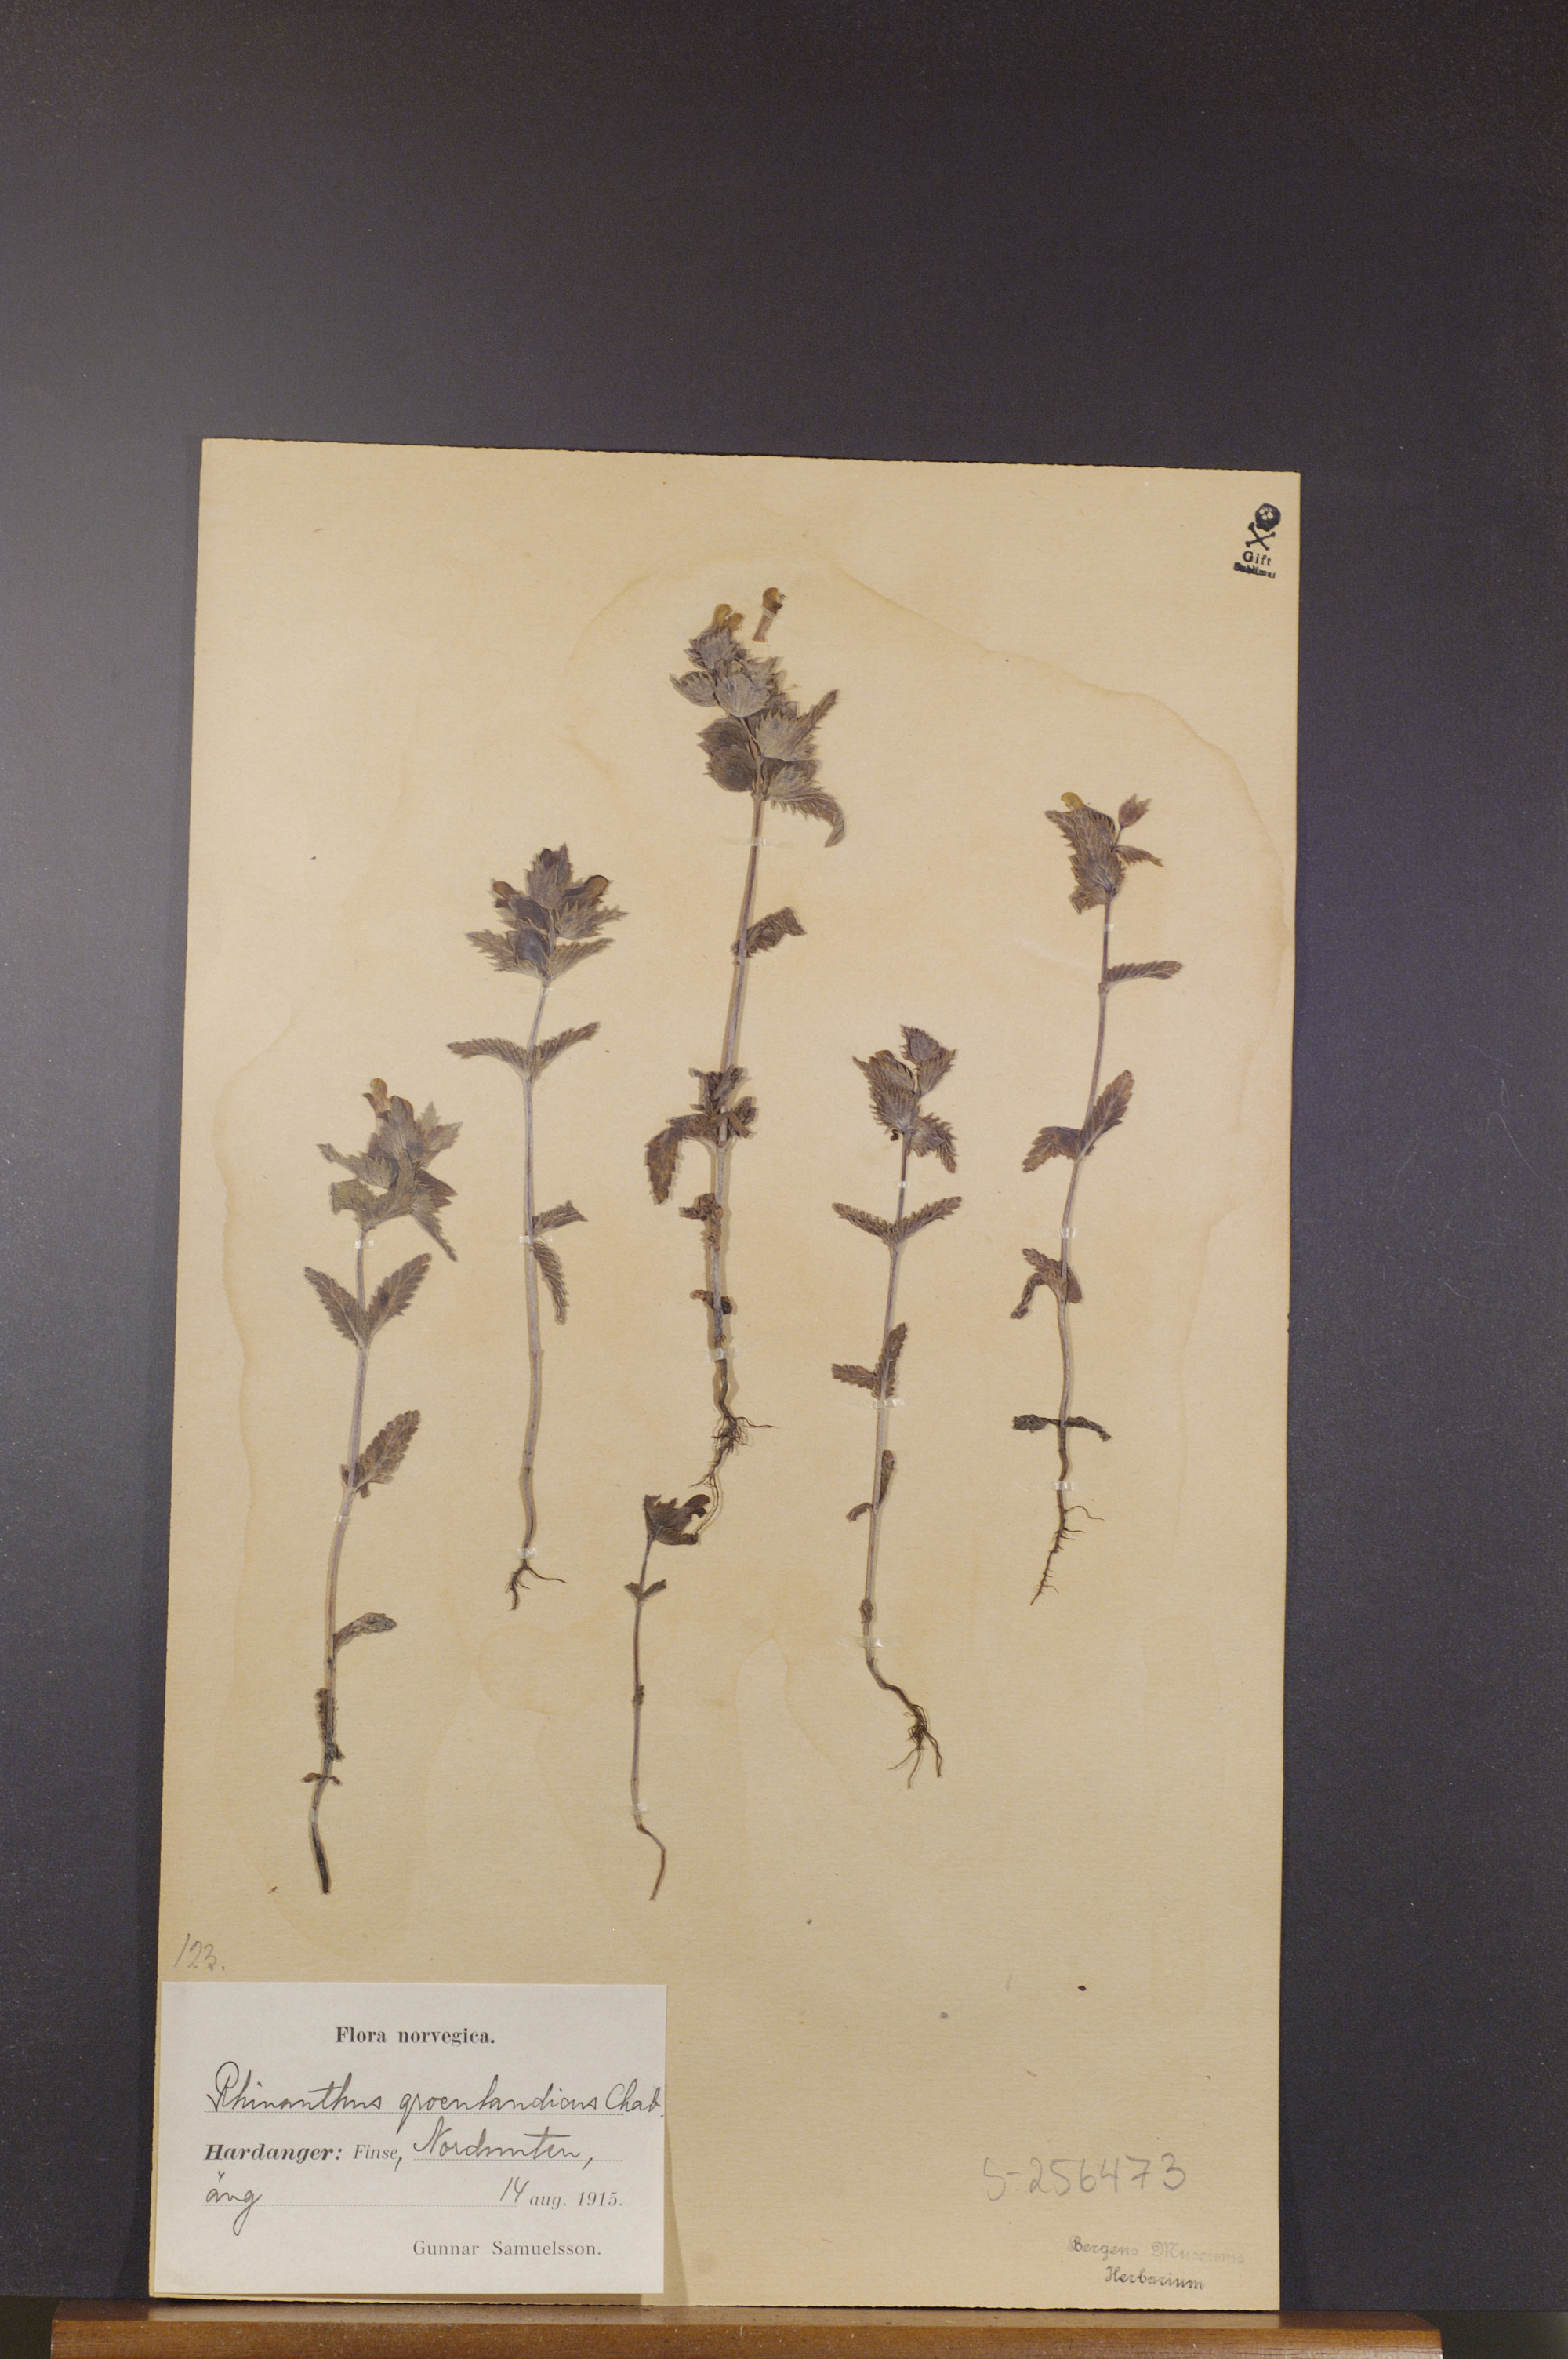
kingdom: Plantae
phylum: Tracheophyta
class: Magnoliopsida
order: Lamiales
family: Orobanchaceae
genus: Rhinanthus
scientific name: Rhinanthus groenlandicus
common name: Little yellow rattle
